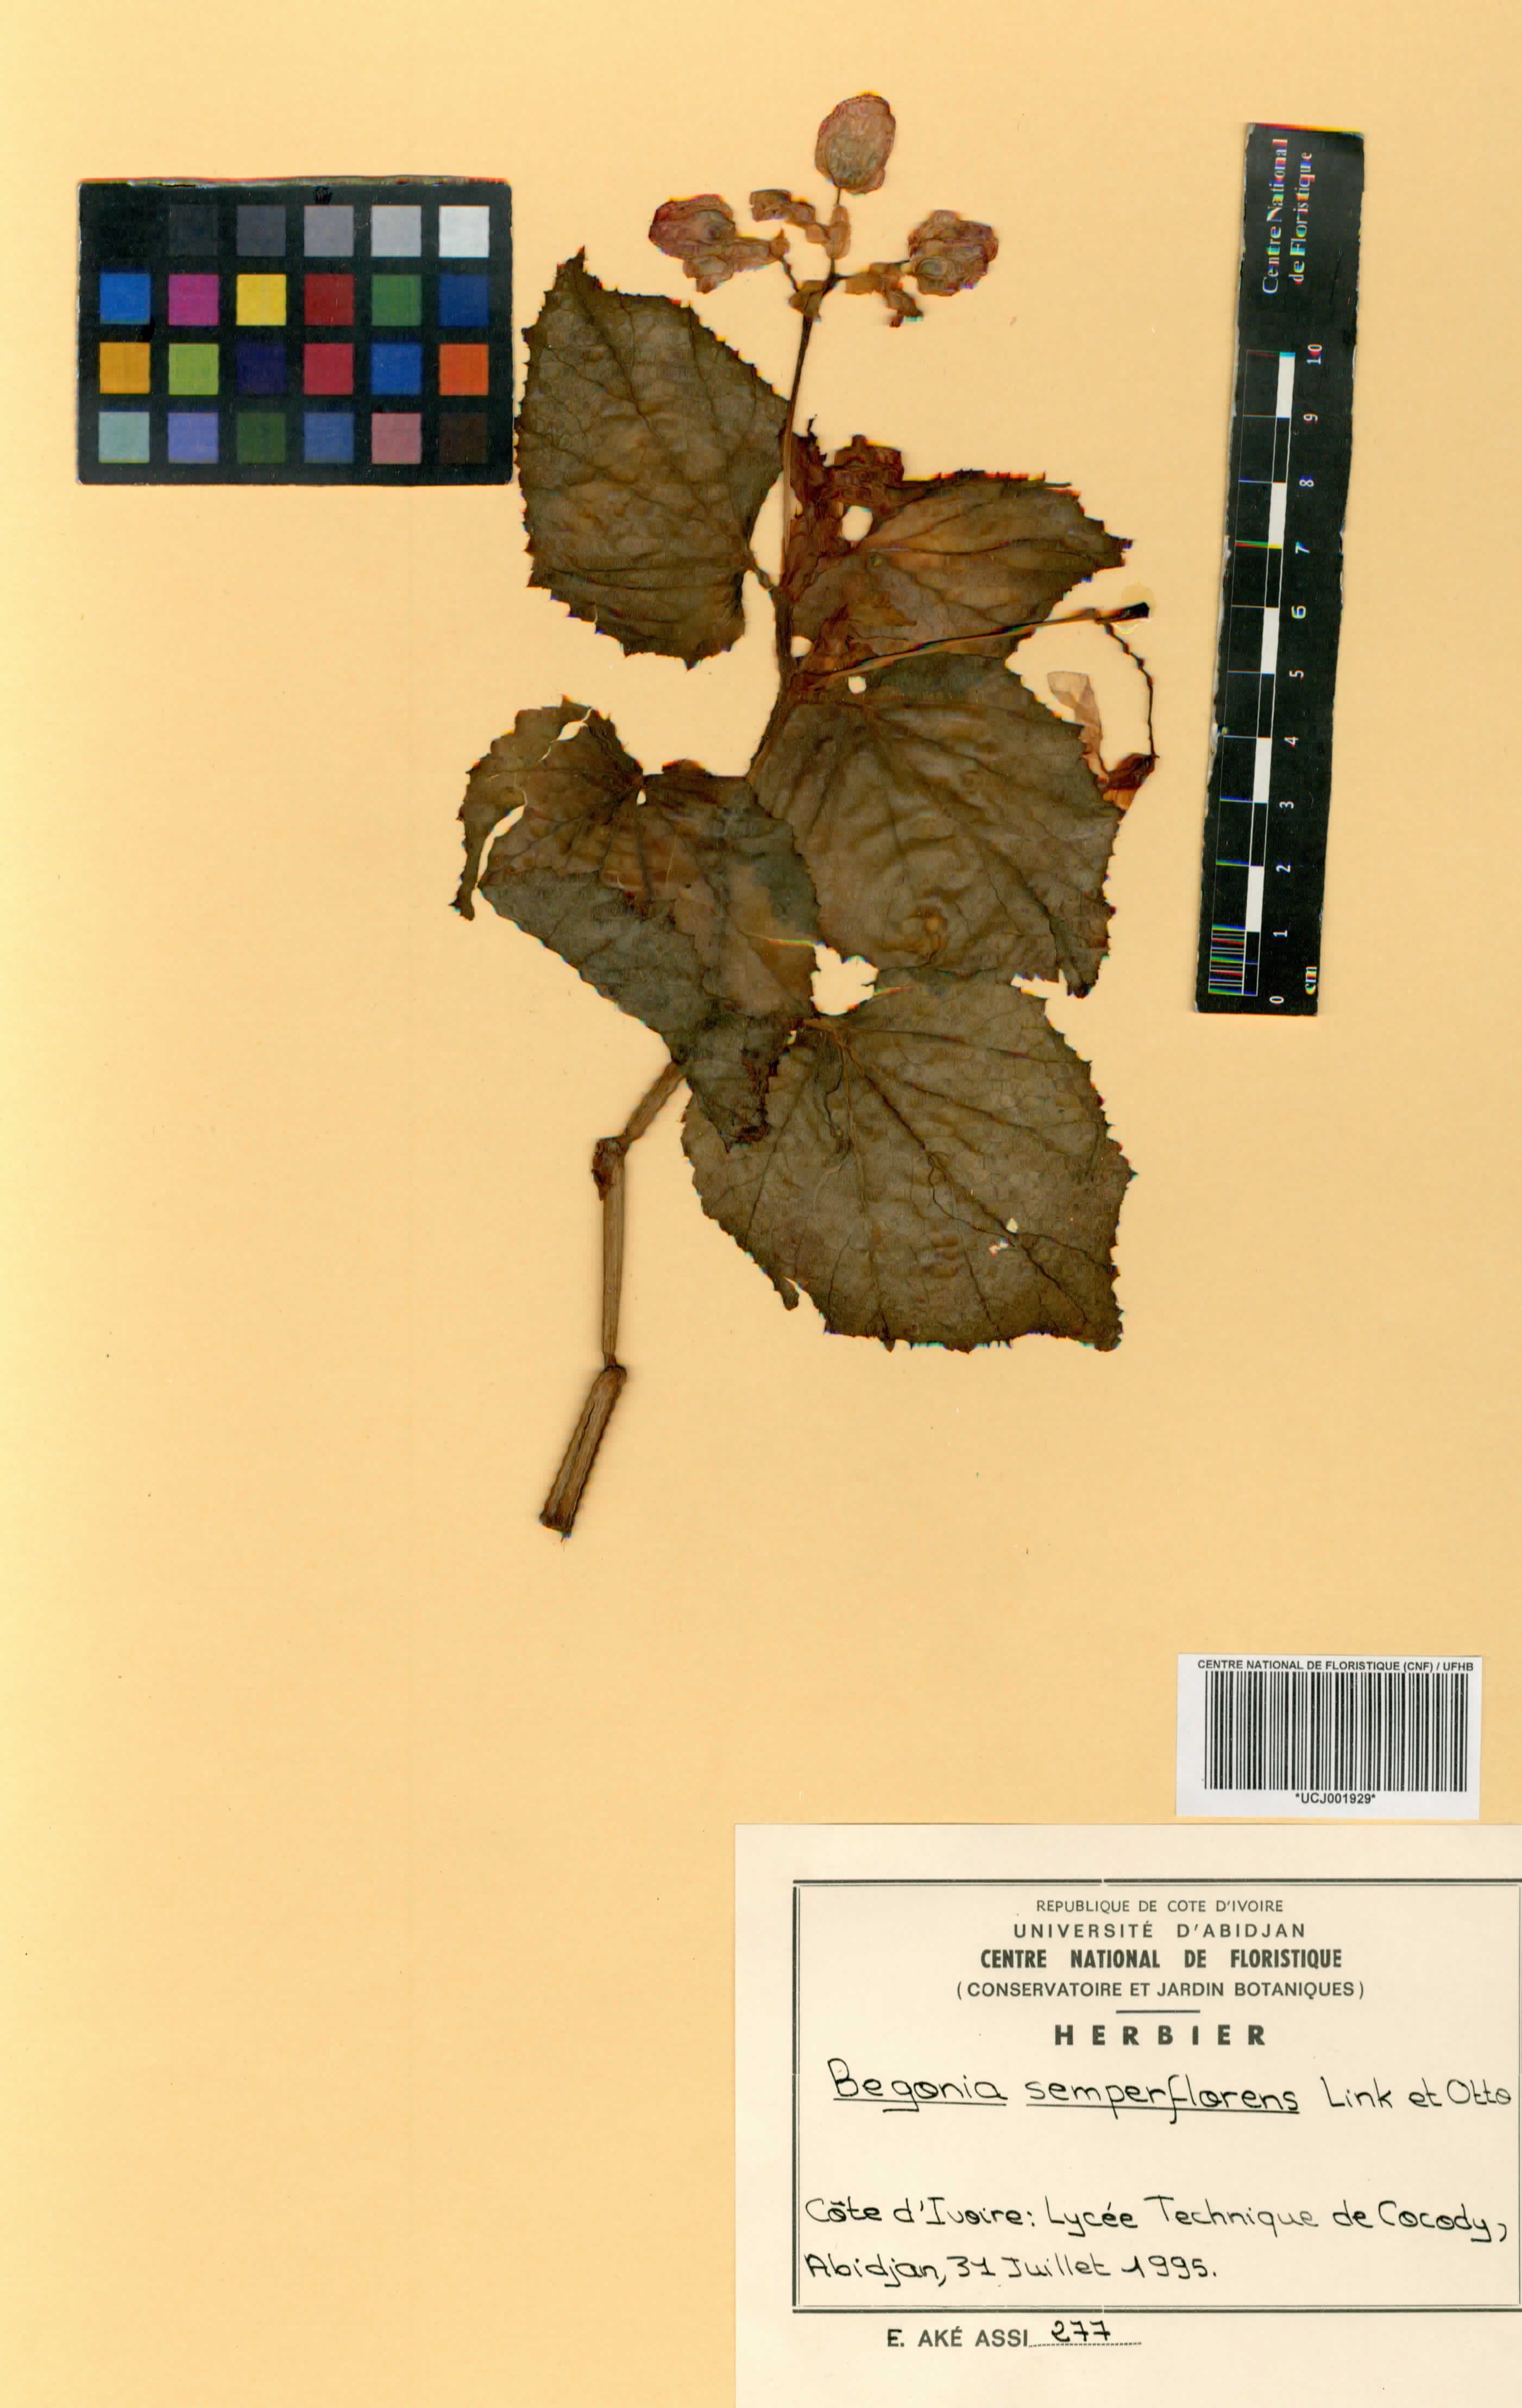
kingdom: Plantae
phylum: Tracheophyta
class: Magnoliopsida
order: Cucurbitales
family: Begoniaceae
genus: Begonia
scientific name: Begonia semperflorens
